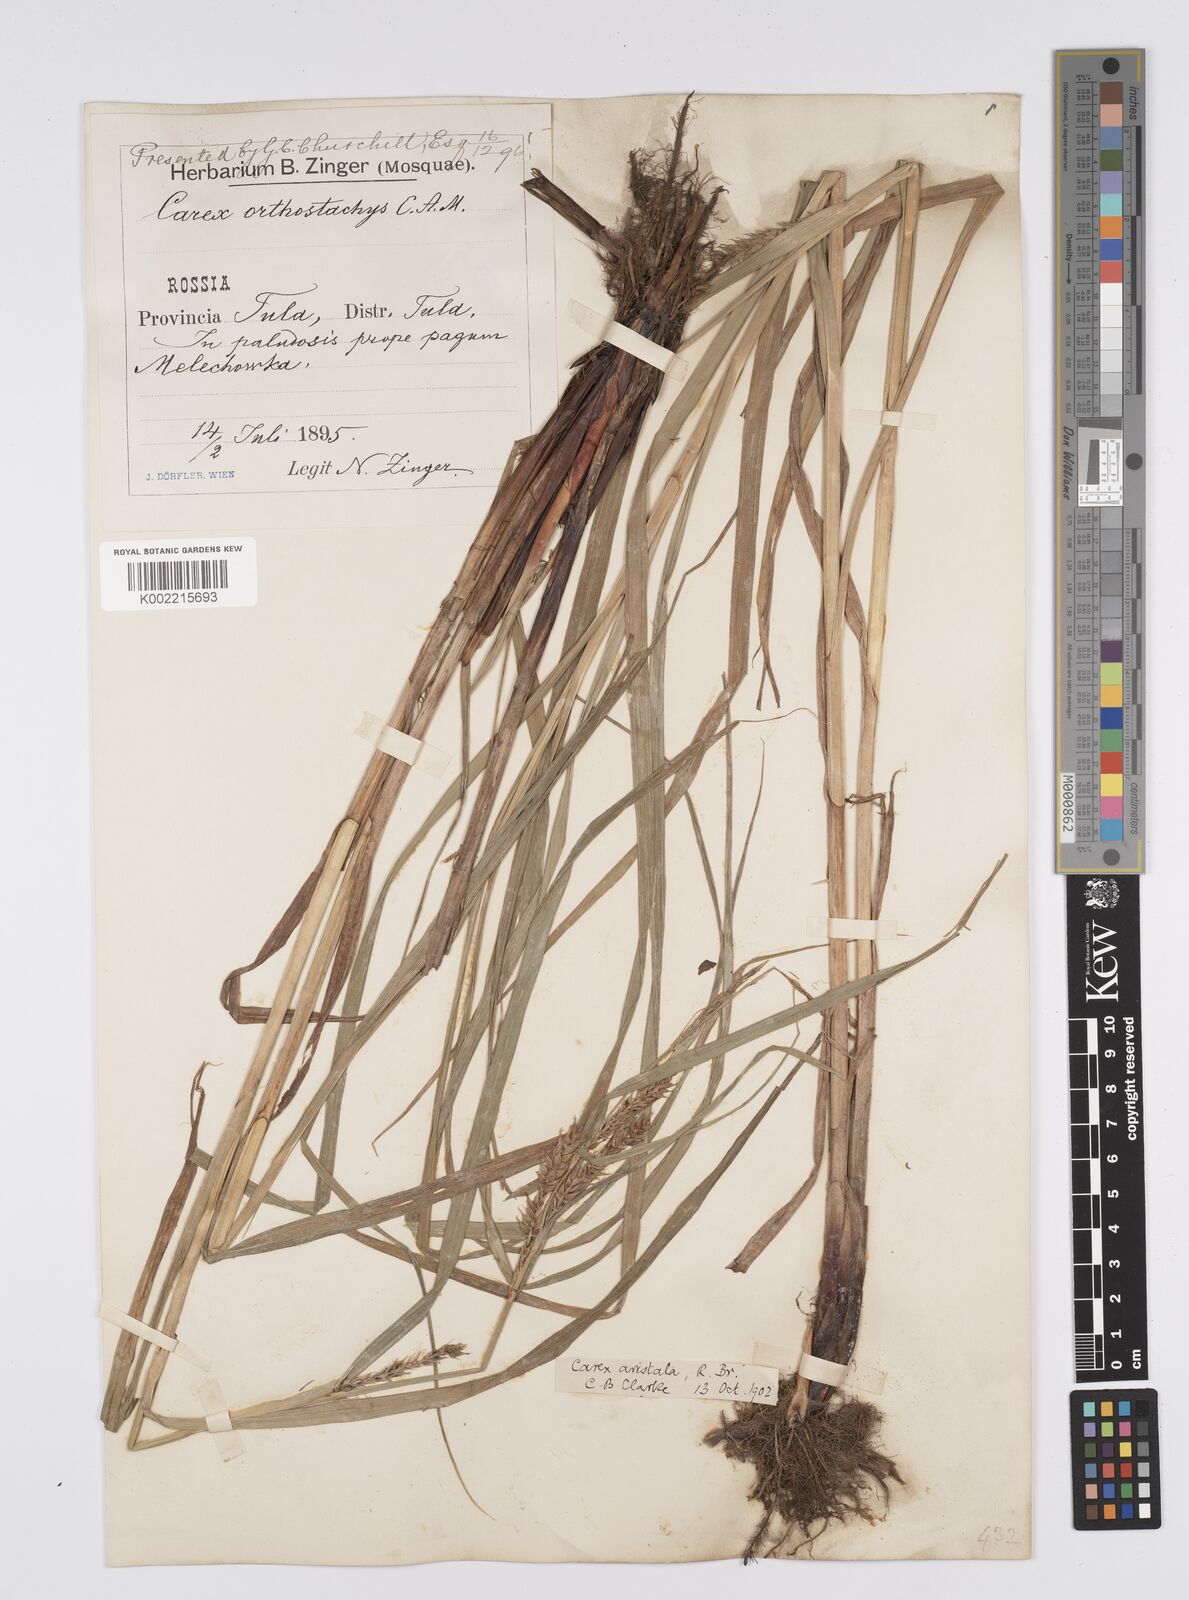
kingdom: Plantae
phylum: Tracheophyta
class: Liliopsida
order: Poales
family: Cyperaceae
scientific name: Cyperaceae
